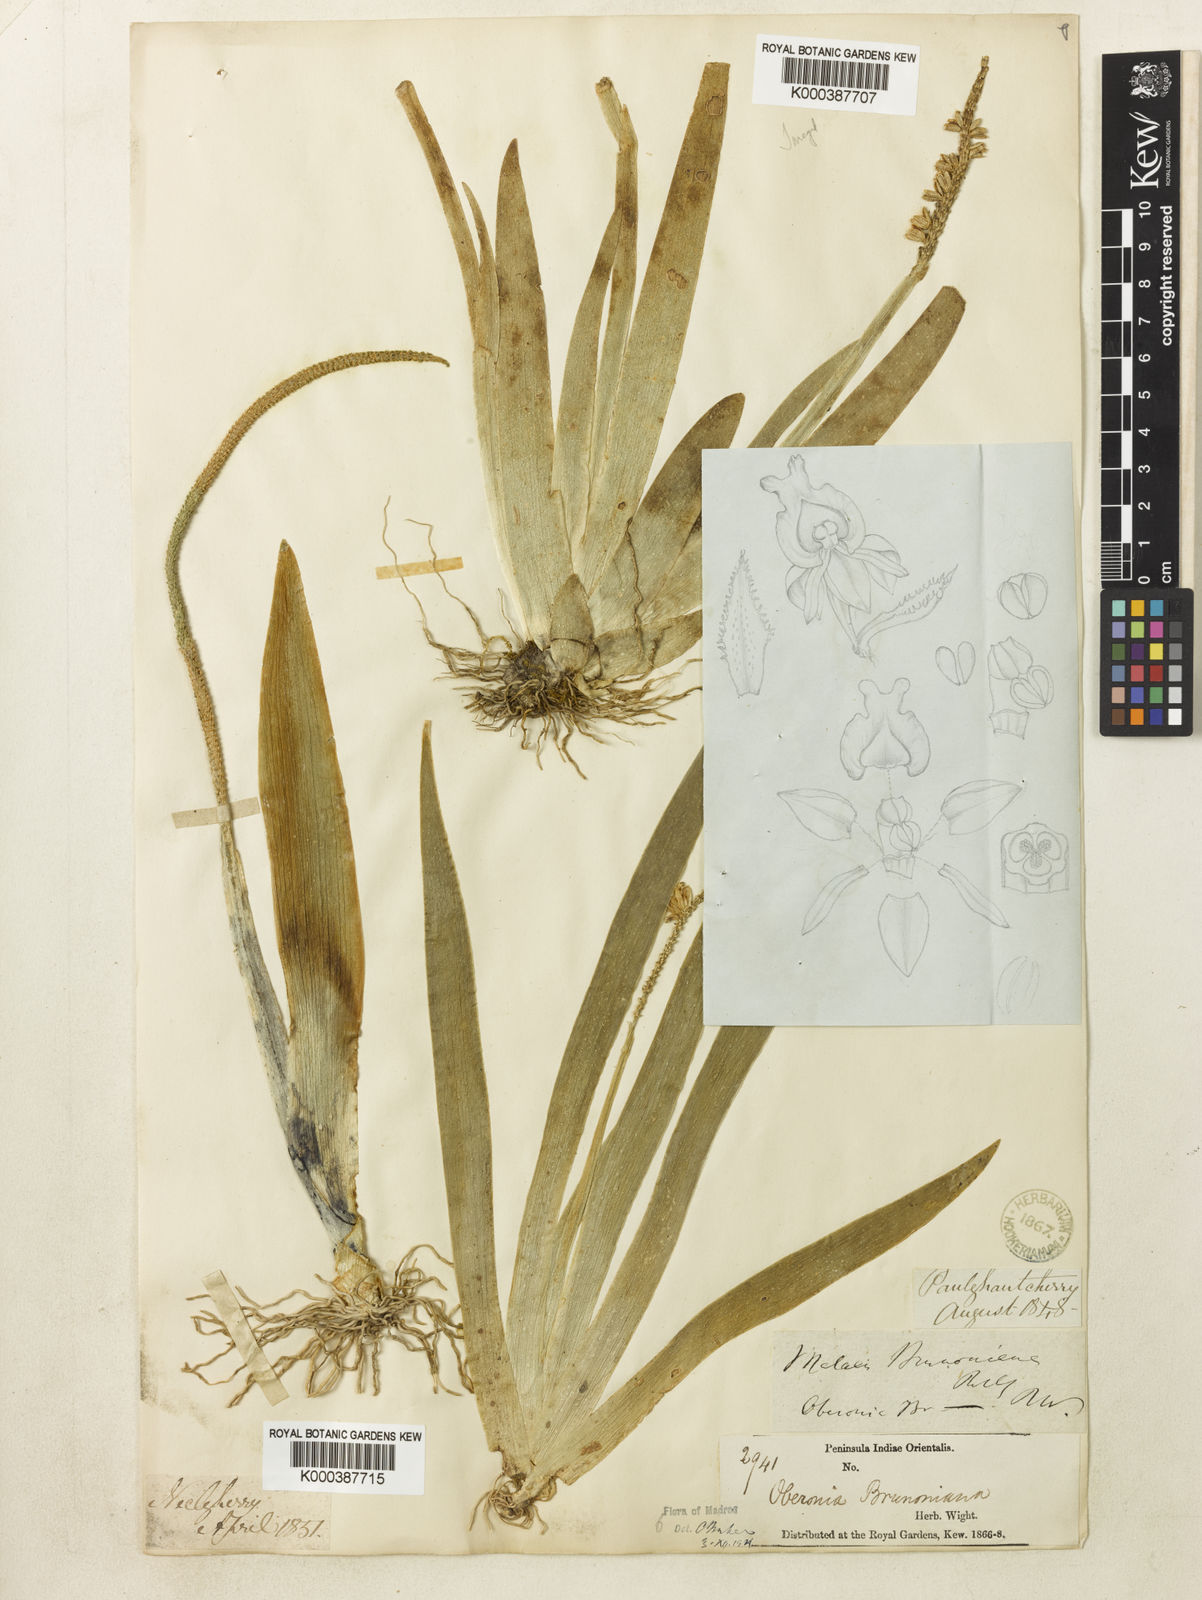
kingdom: Plantae
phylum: Tracheophyta
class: Liliopsida
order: Asparagales
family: Orchidaceae
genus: Oberonia
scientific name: Oberonia brunoniana
